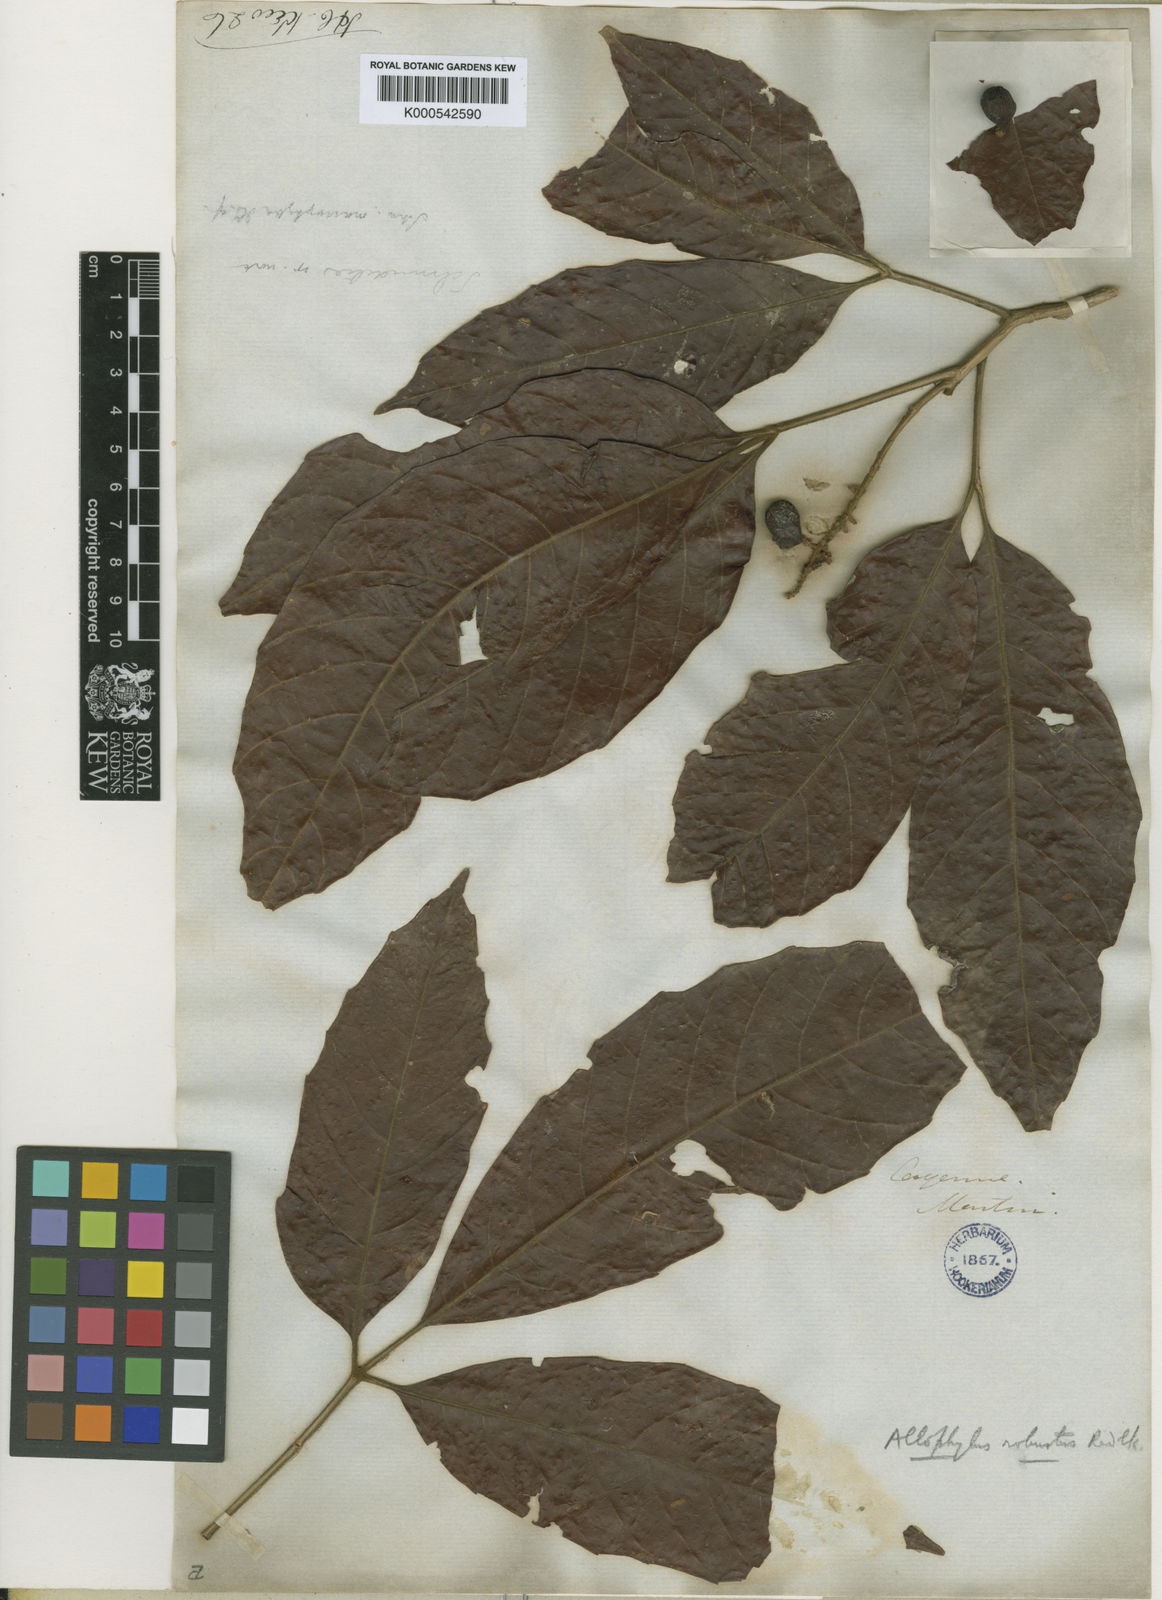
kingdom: Plantae
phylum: Tracheophyta
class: Magnoliopsida
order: Sapindales
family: Sapindaceae
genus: Allophylus
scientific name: Allophylus
